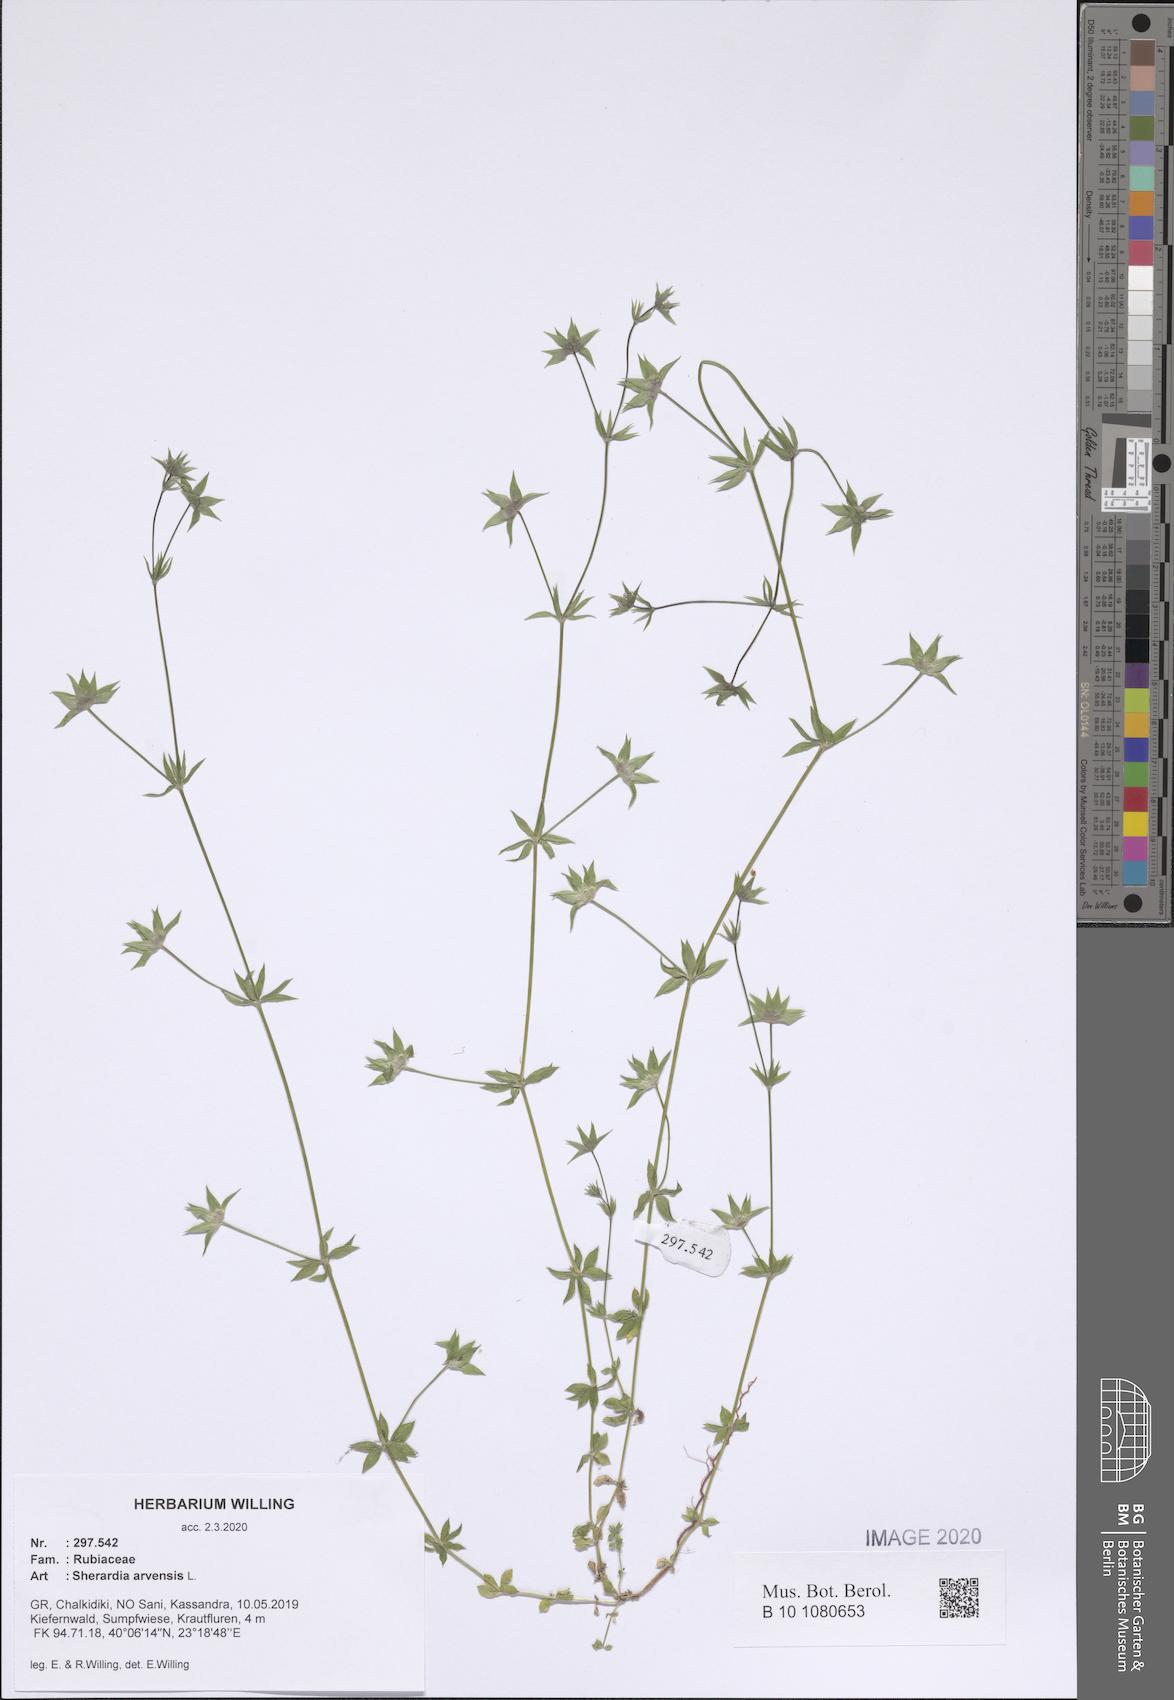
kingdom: Plantae
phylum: Tracheophyta
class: Magnoliopsida
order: Gentianales
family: Rubiaceae
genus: Sherardia
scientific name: Sherardia arvensis
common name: Field madder
